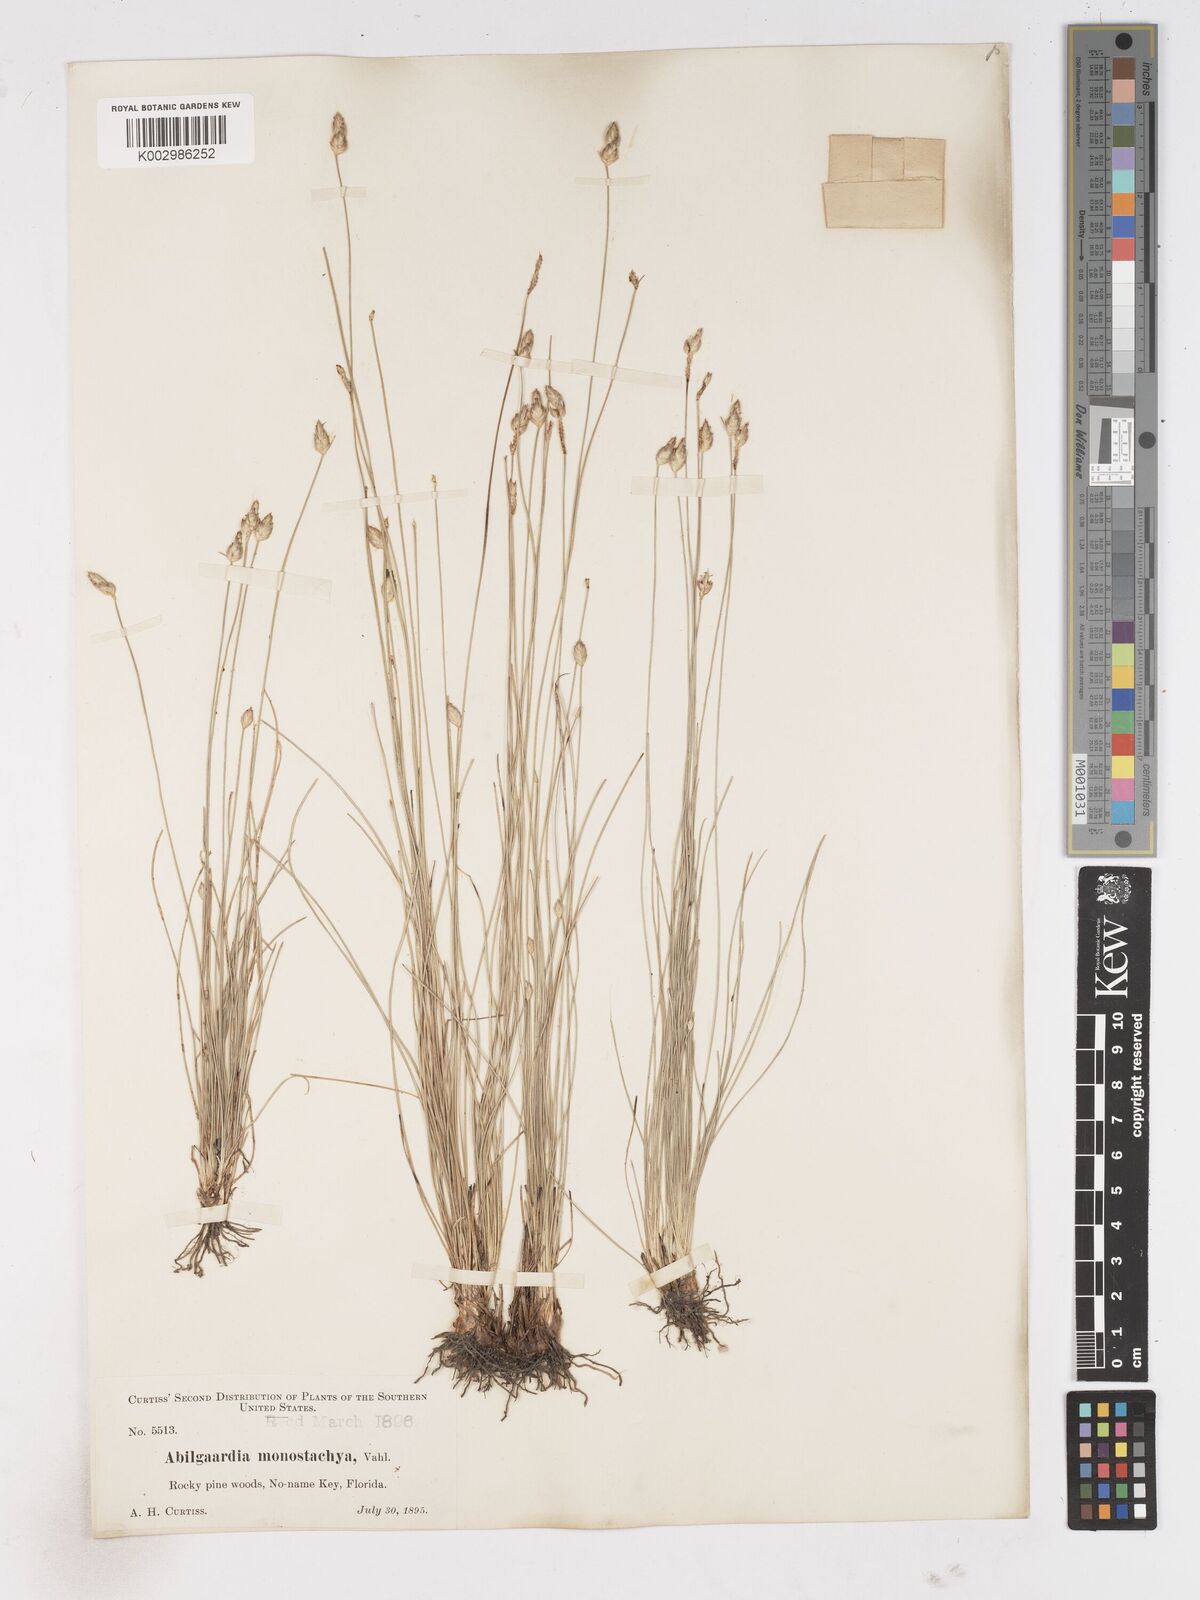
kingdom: Plantae
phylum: Tracheophyta
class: Liliopsida
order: Poales
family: Cyperaceae
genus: Abildgaardia
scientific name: Abildgaardia ovata
